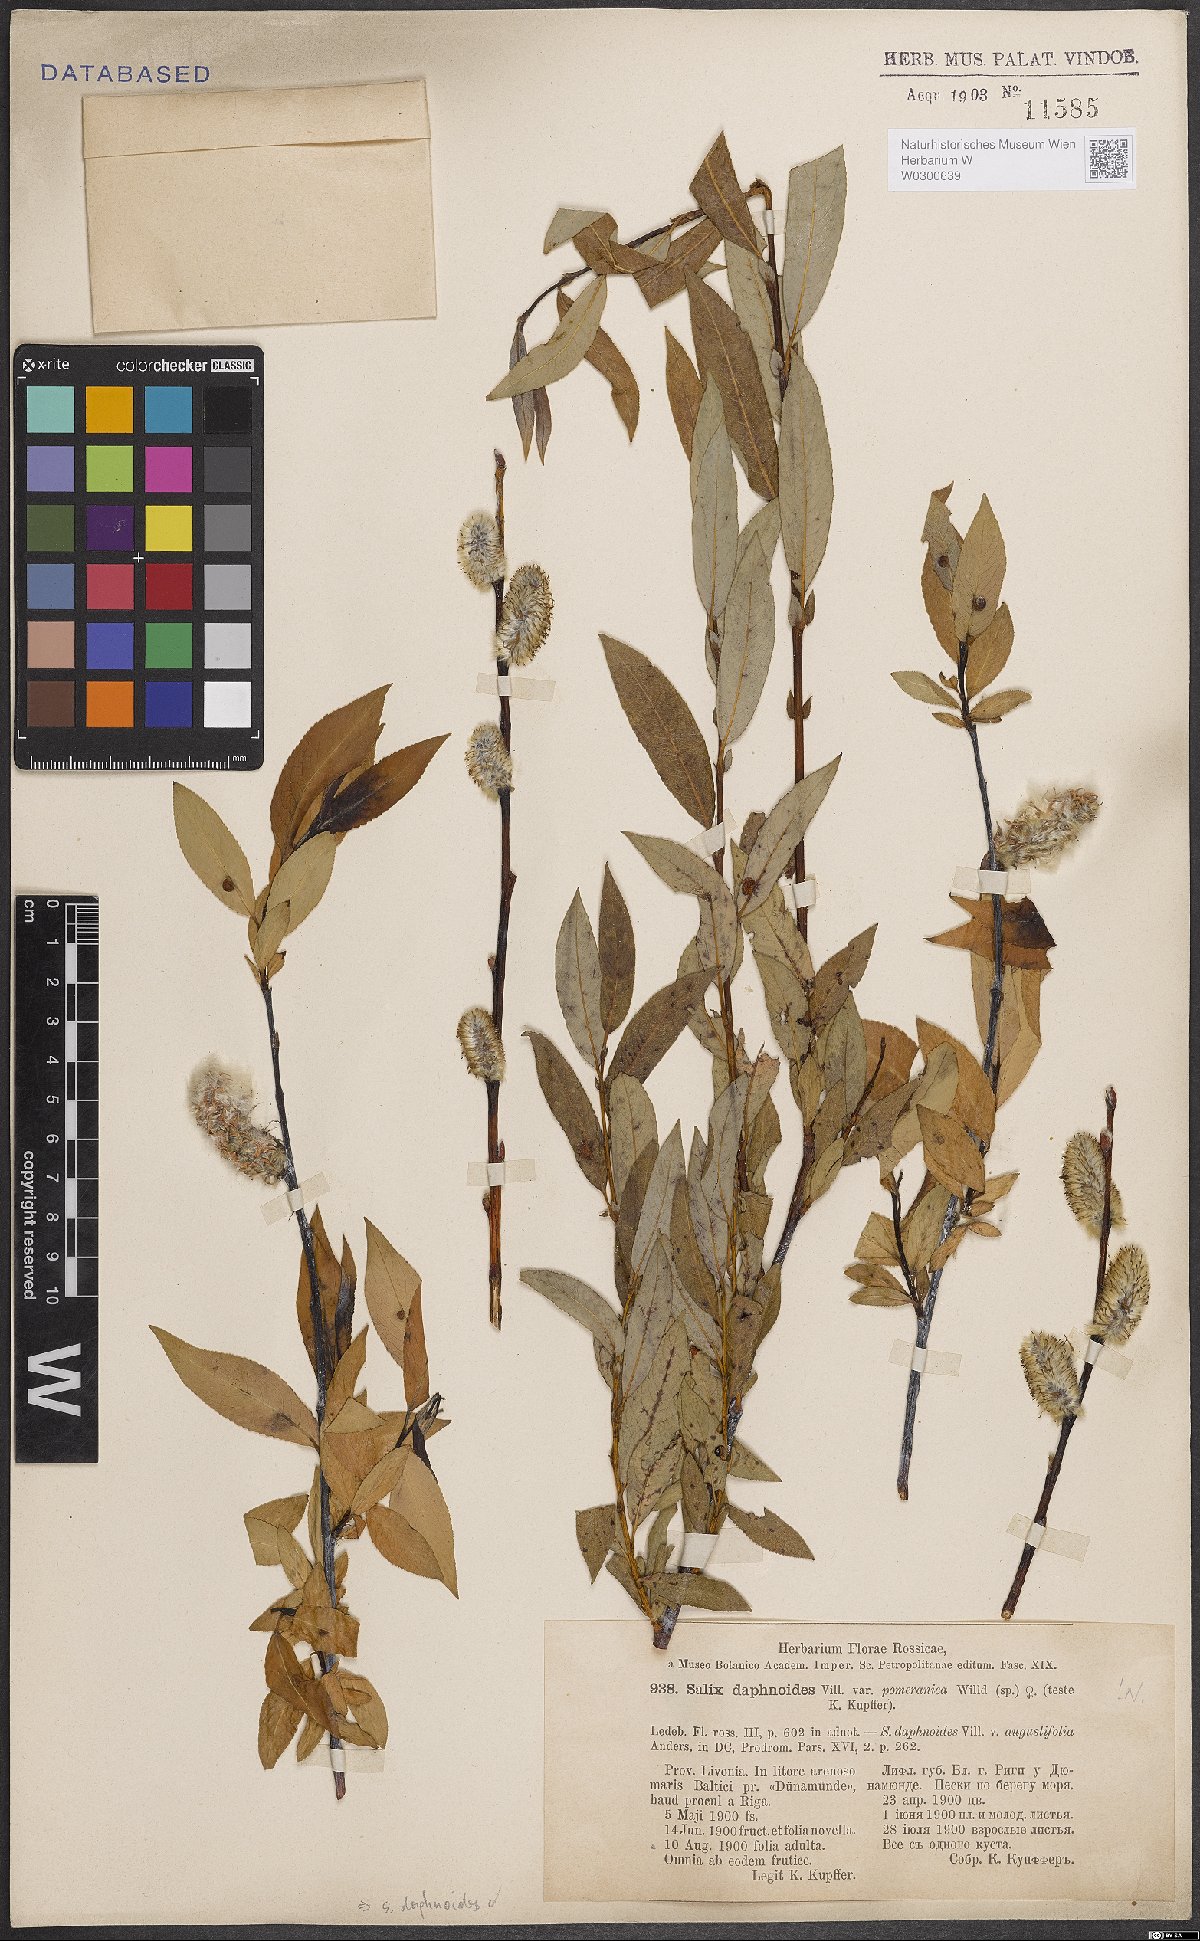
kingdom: Plantae
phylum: Tracheophyta
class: Magnoliopsida
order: Malpighiales
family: Salicaceae
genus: Salix
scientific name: Salix daphnoides
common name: European violet-willow
